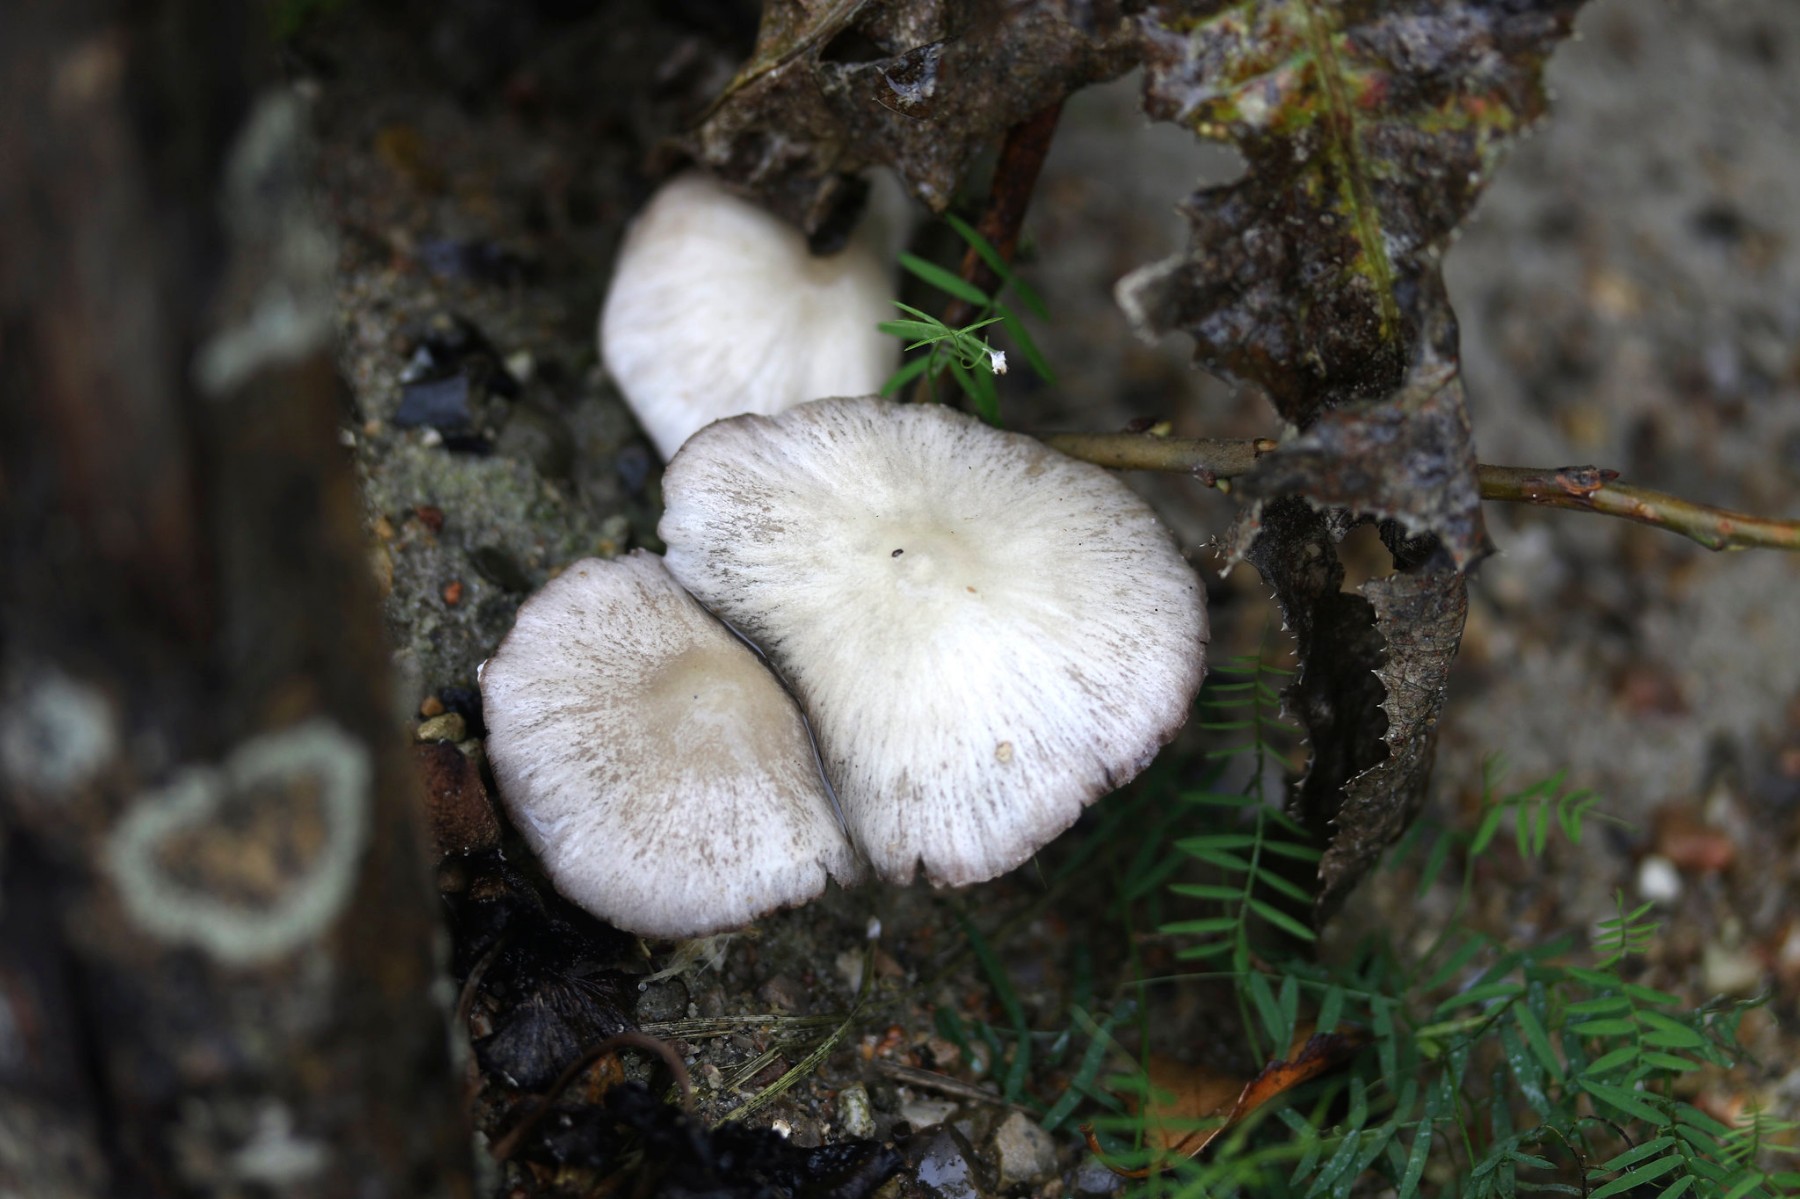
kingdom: Fungi
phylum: Basidiomycota
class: Agaricomycetes
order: Agaricales
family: Psathyrellaceae
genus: Psathyrella
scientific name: Psathyrella
